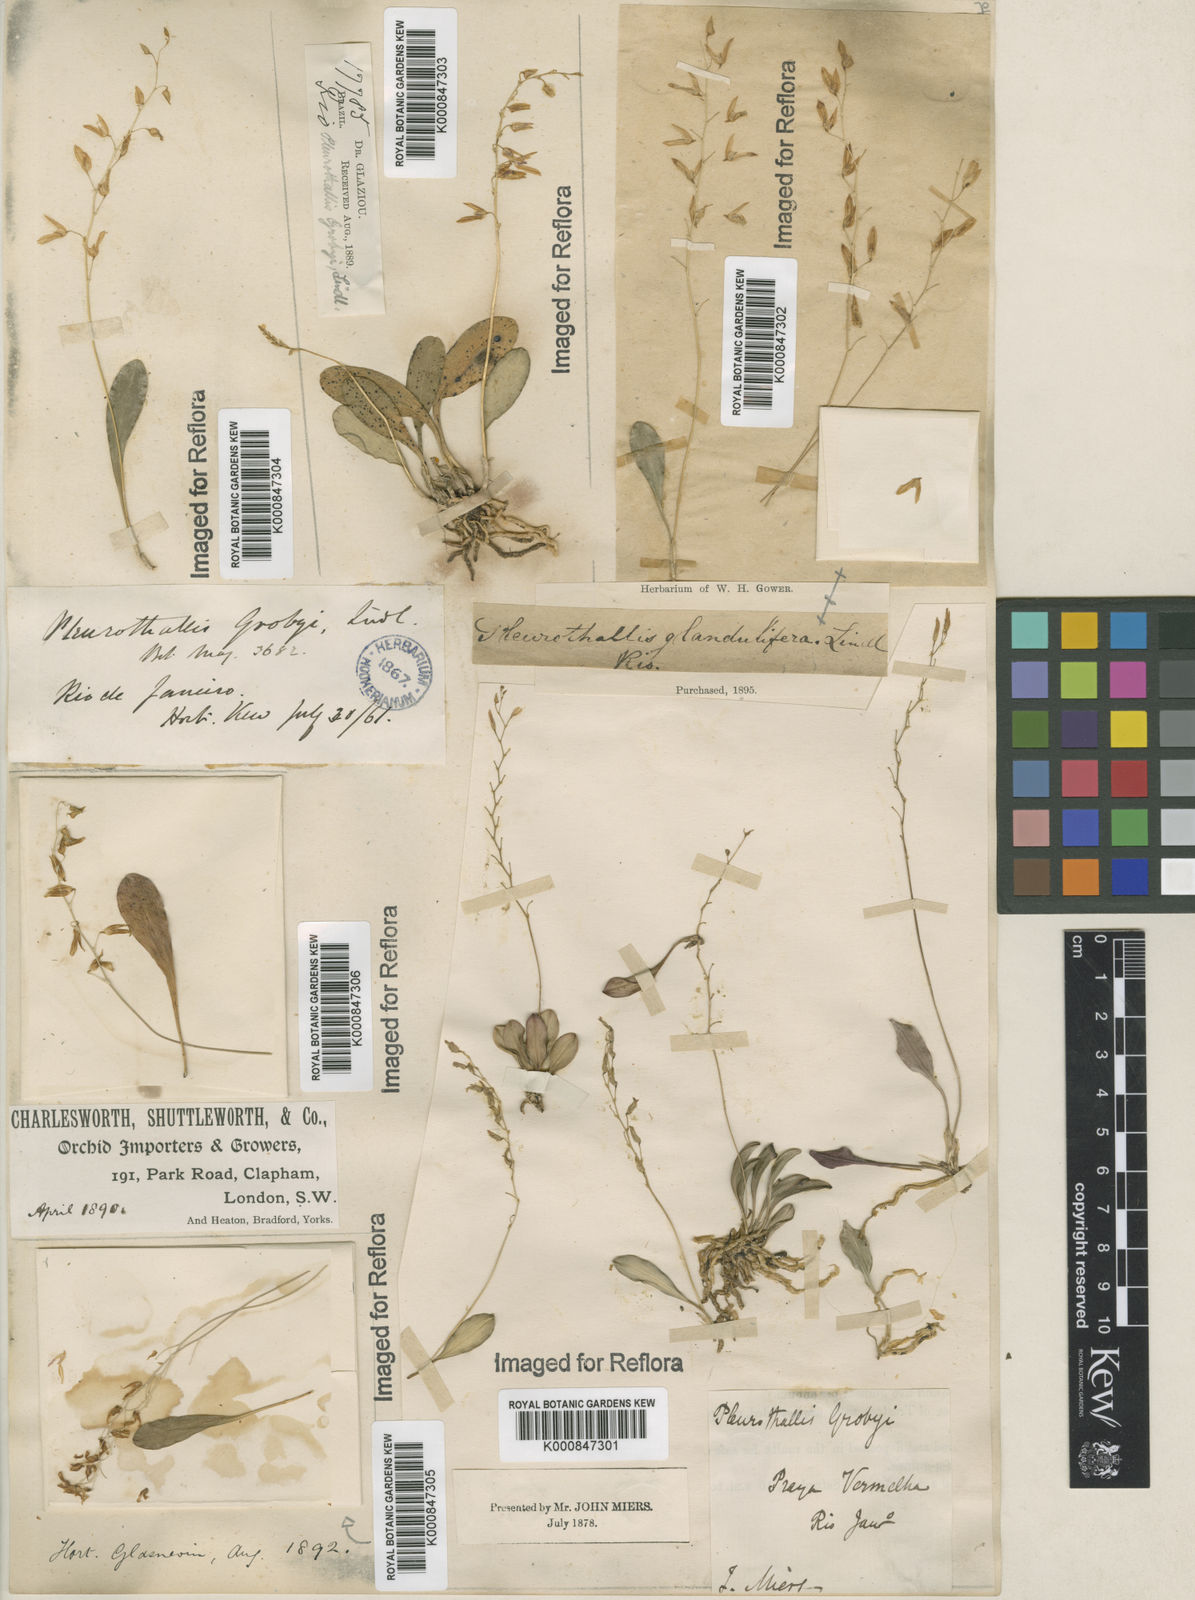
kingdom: Plantae
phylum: Tracheophyta
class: Liliopsida
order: Asparagales
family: Orchidaceae
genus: Specklinia
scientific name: Specklinia grobyi
